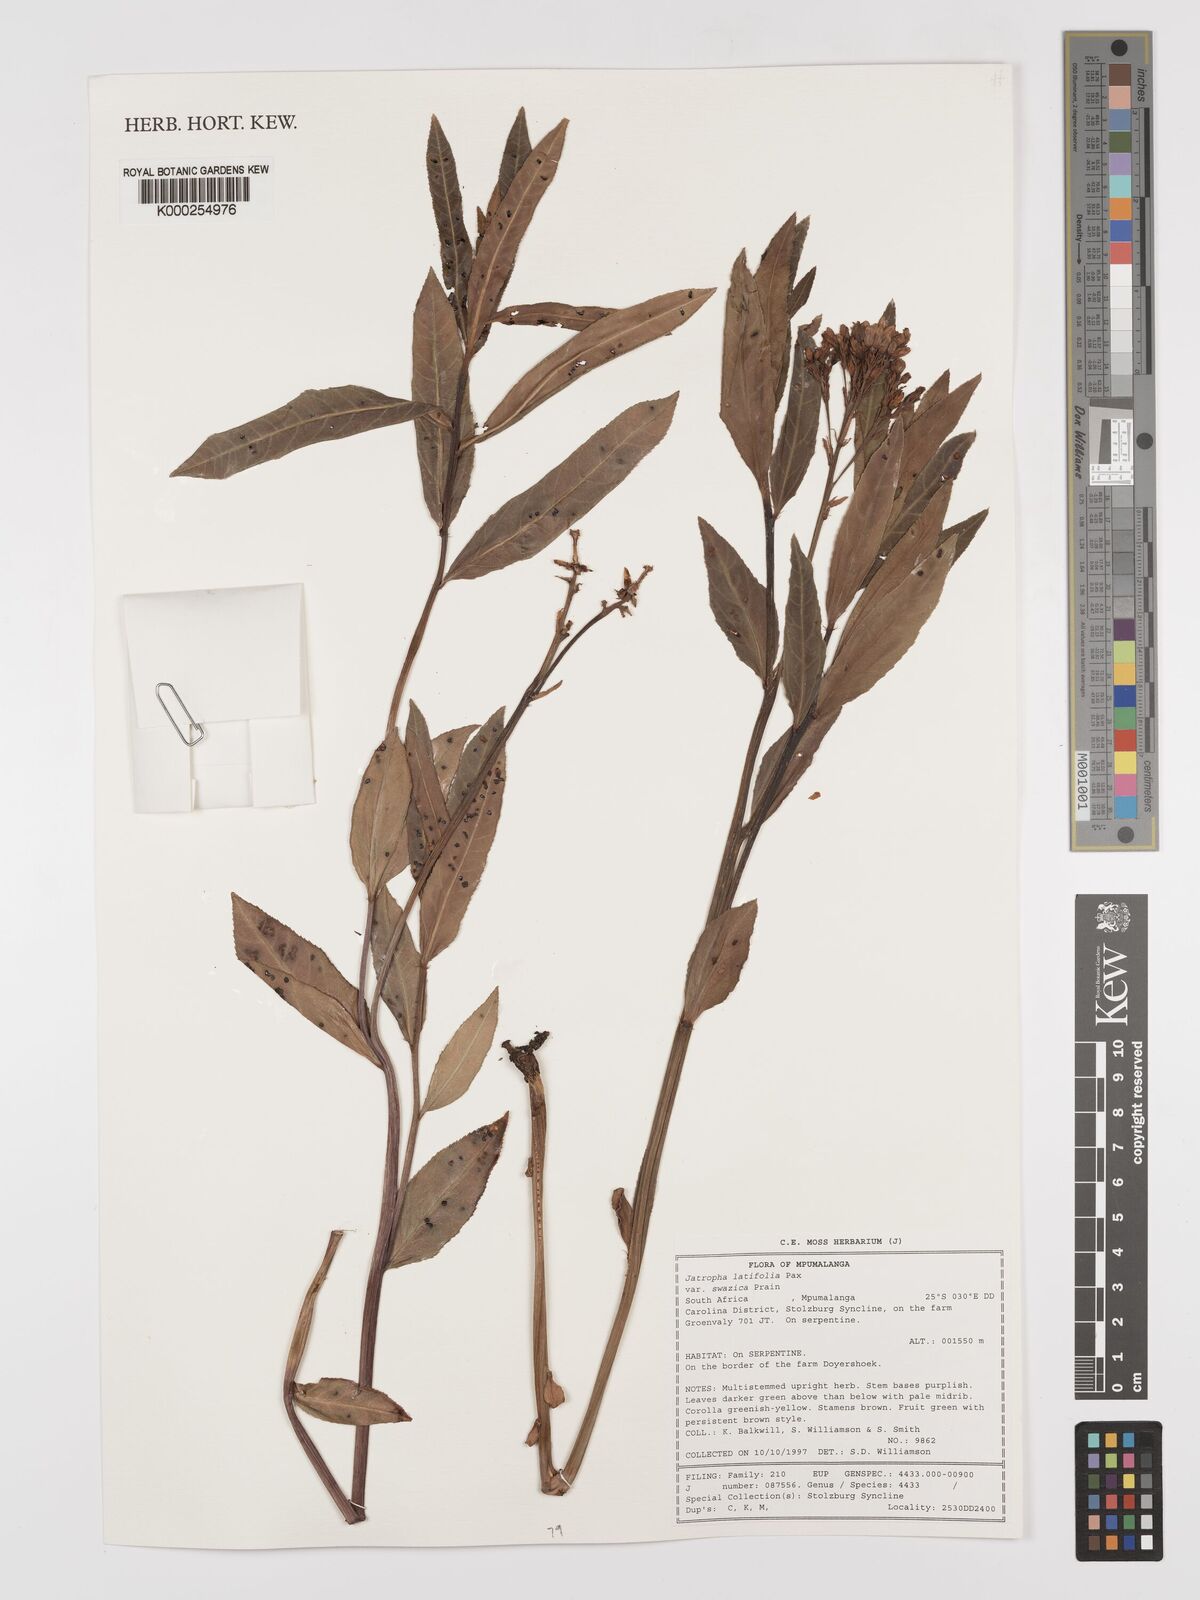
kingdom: Plantae
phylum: Tracheophyta
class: Magnoliopsida
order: Malpighiales
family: Euphorbiaceae
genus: Jatropha
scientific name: Jatropha latifolia
